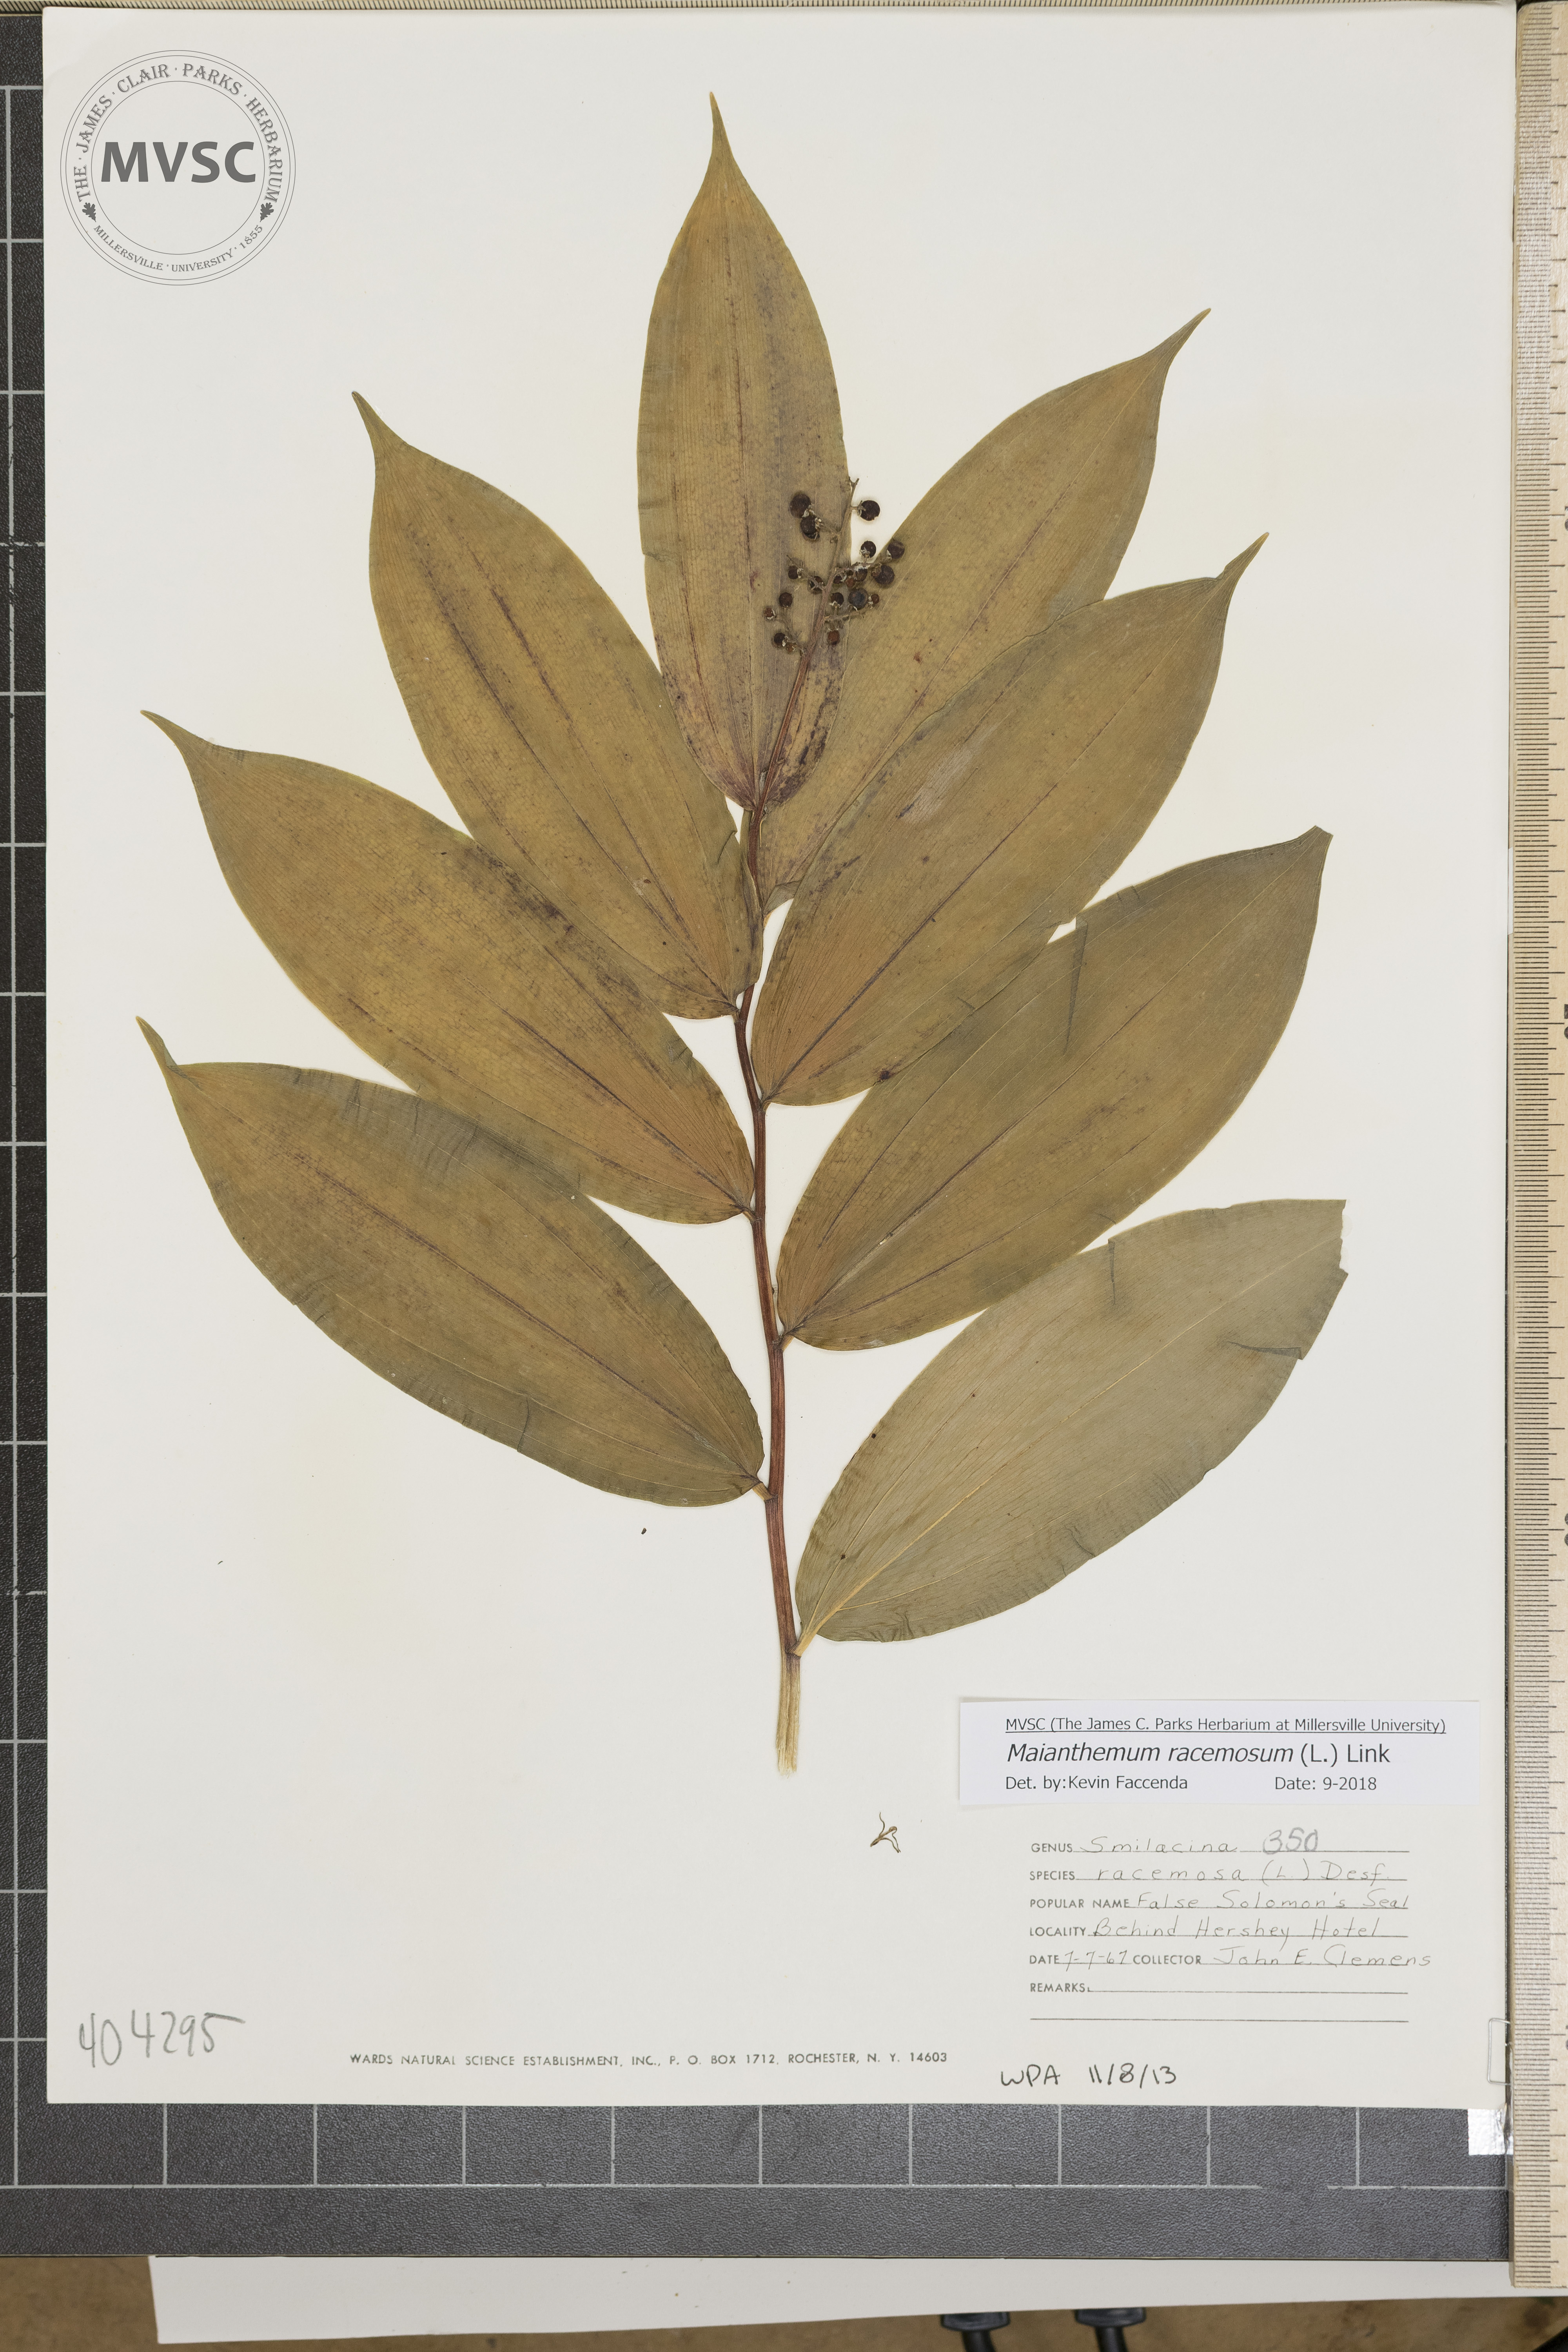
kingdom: Plantae
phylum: Tracheophyta
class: Liliopsida
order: Asparagales
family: Asparagaceae
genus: Maianthemum
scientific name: Maianthemum racemosum
